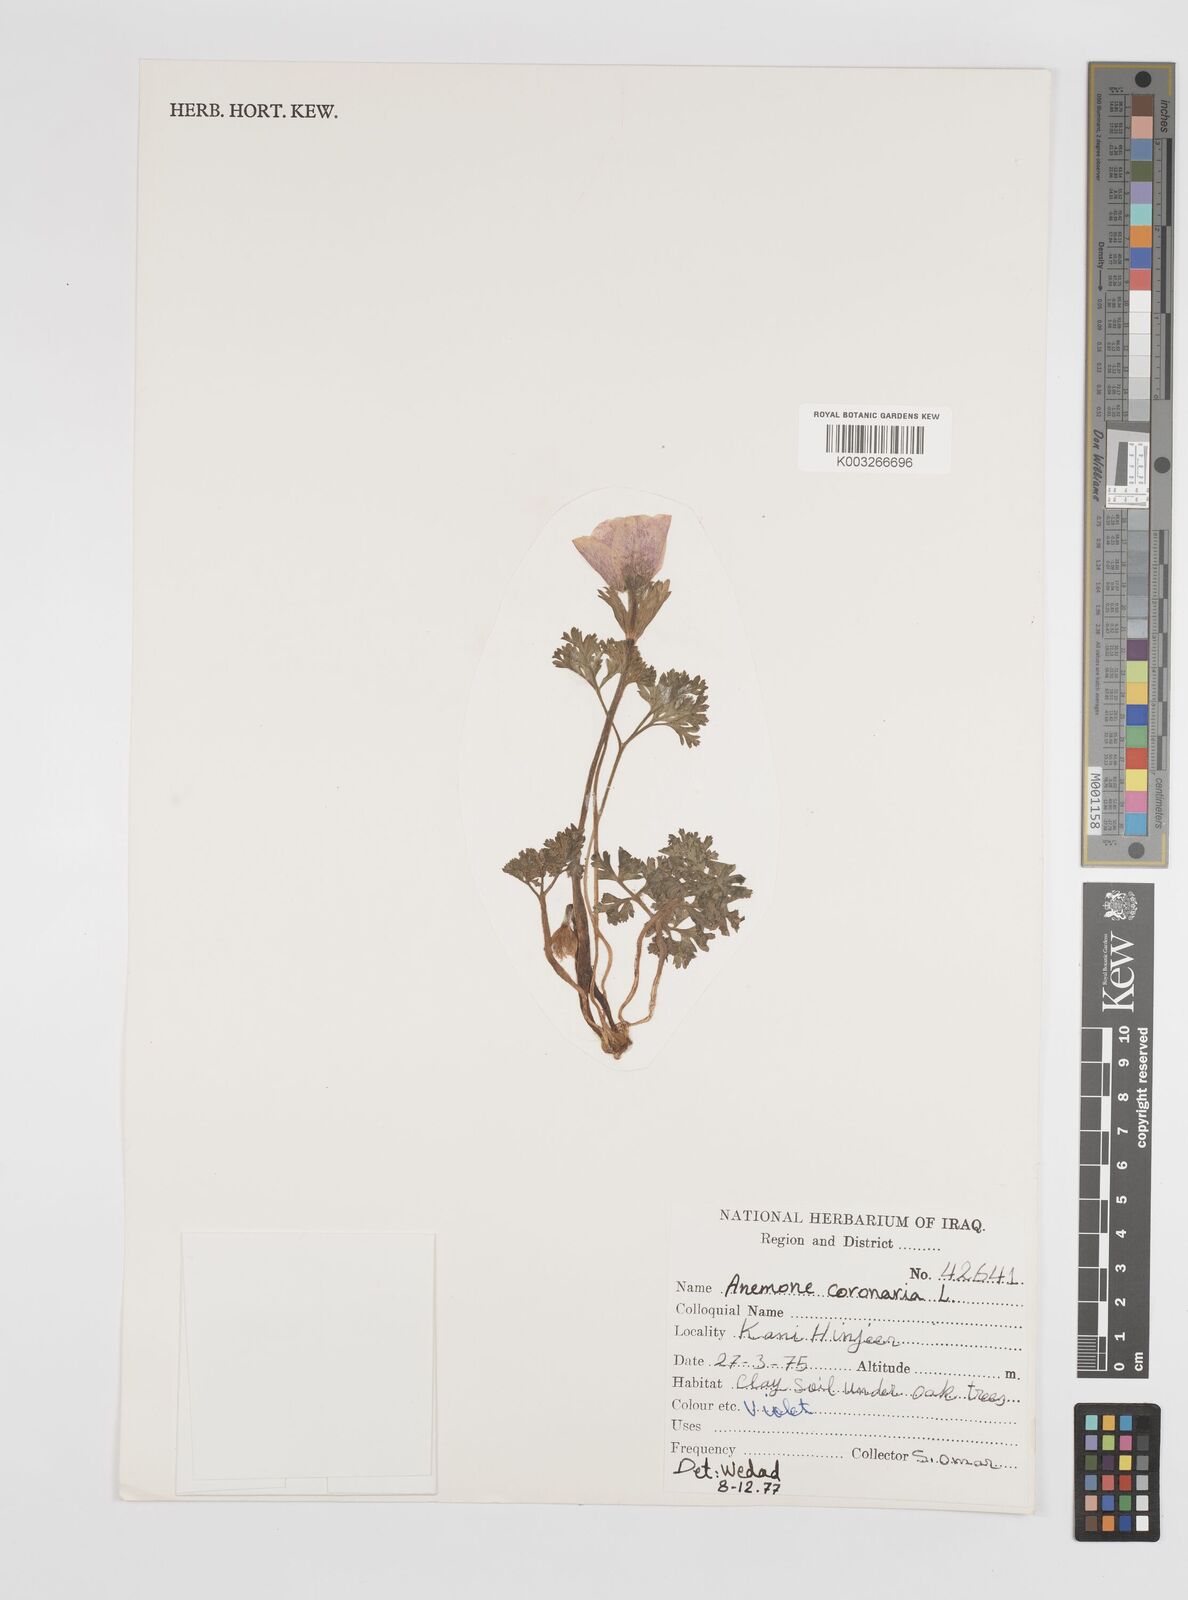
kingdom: Plantae
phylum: Tracheophyta
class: Magnoliopsida
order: Ranunculales
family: Ranunculaceae
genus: Anemone
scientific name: Anemone coronaria
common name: Poppy anemone
